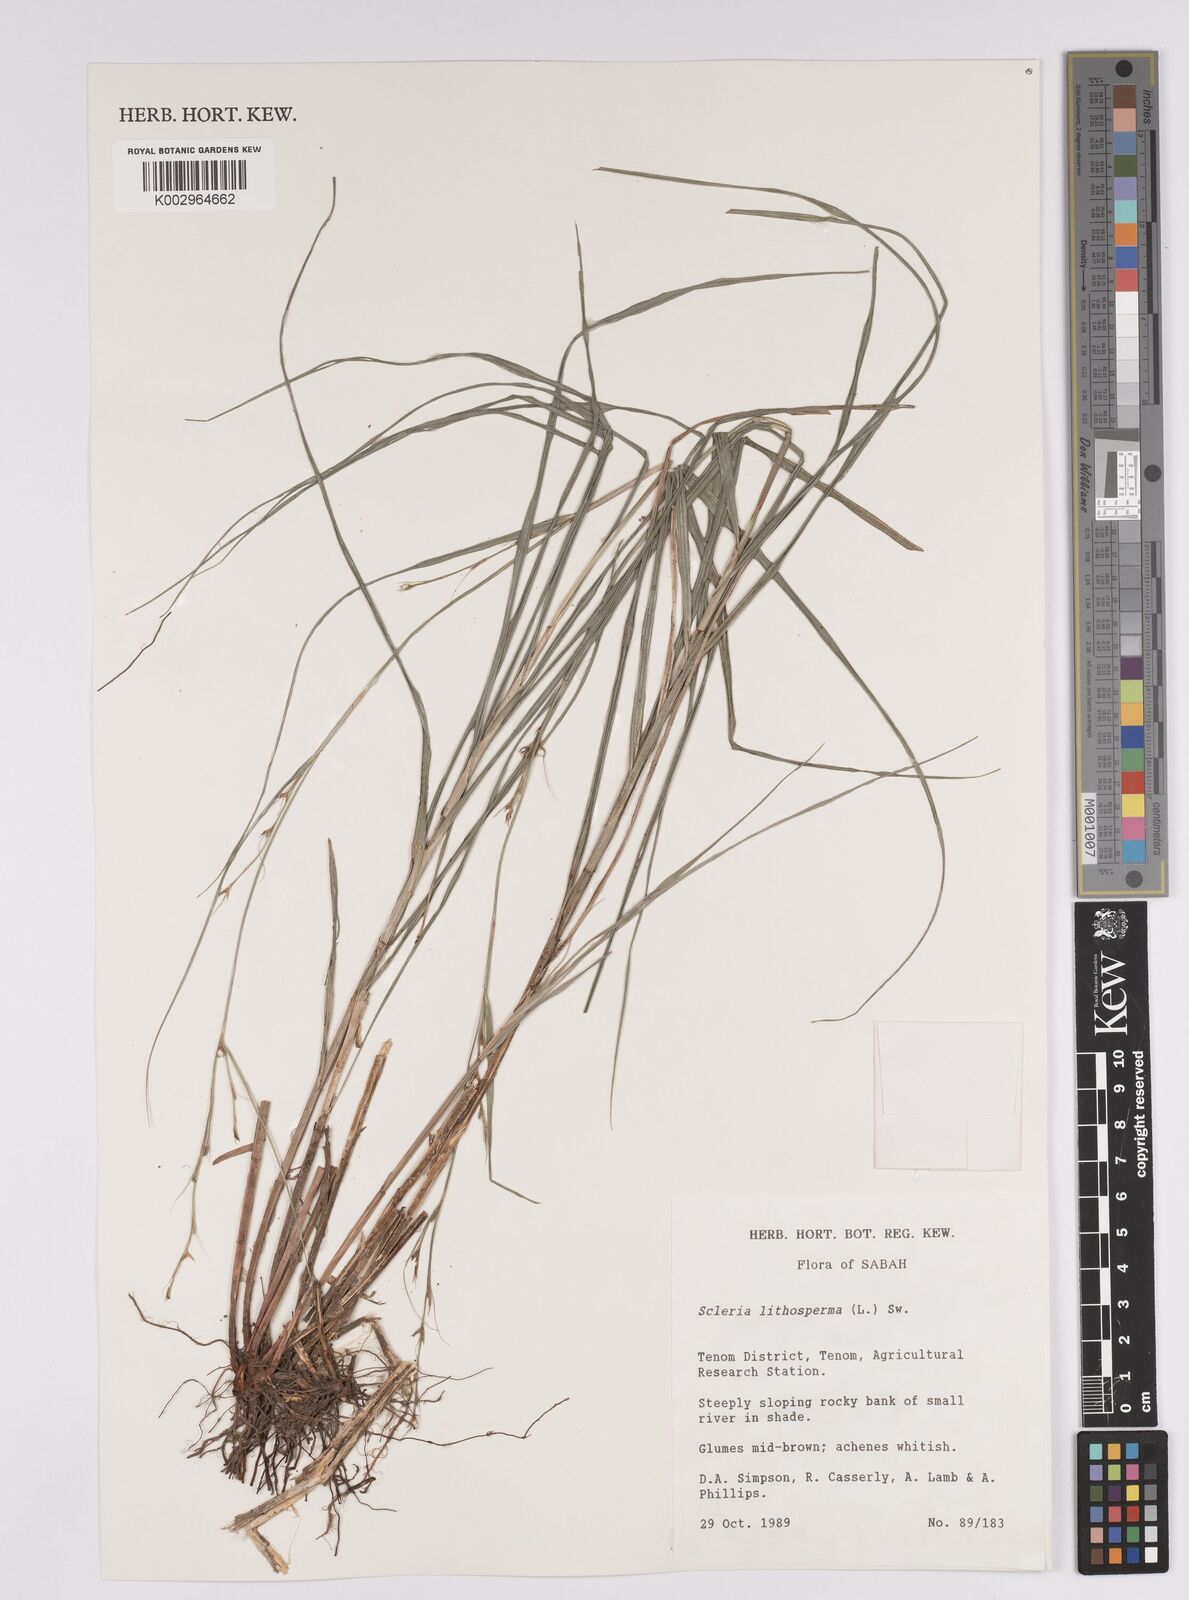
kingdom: Plantae
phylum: Tracheophyta
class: Liliopsida
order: Poales
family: Cyperaceae
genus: Scleria
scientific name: Scleria lithosperma
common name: Florida keys nut-rush
